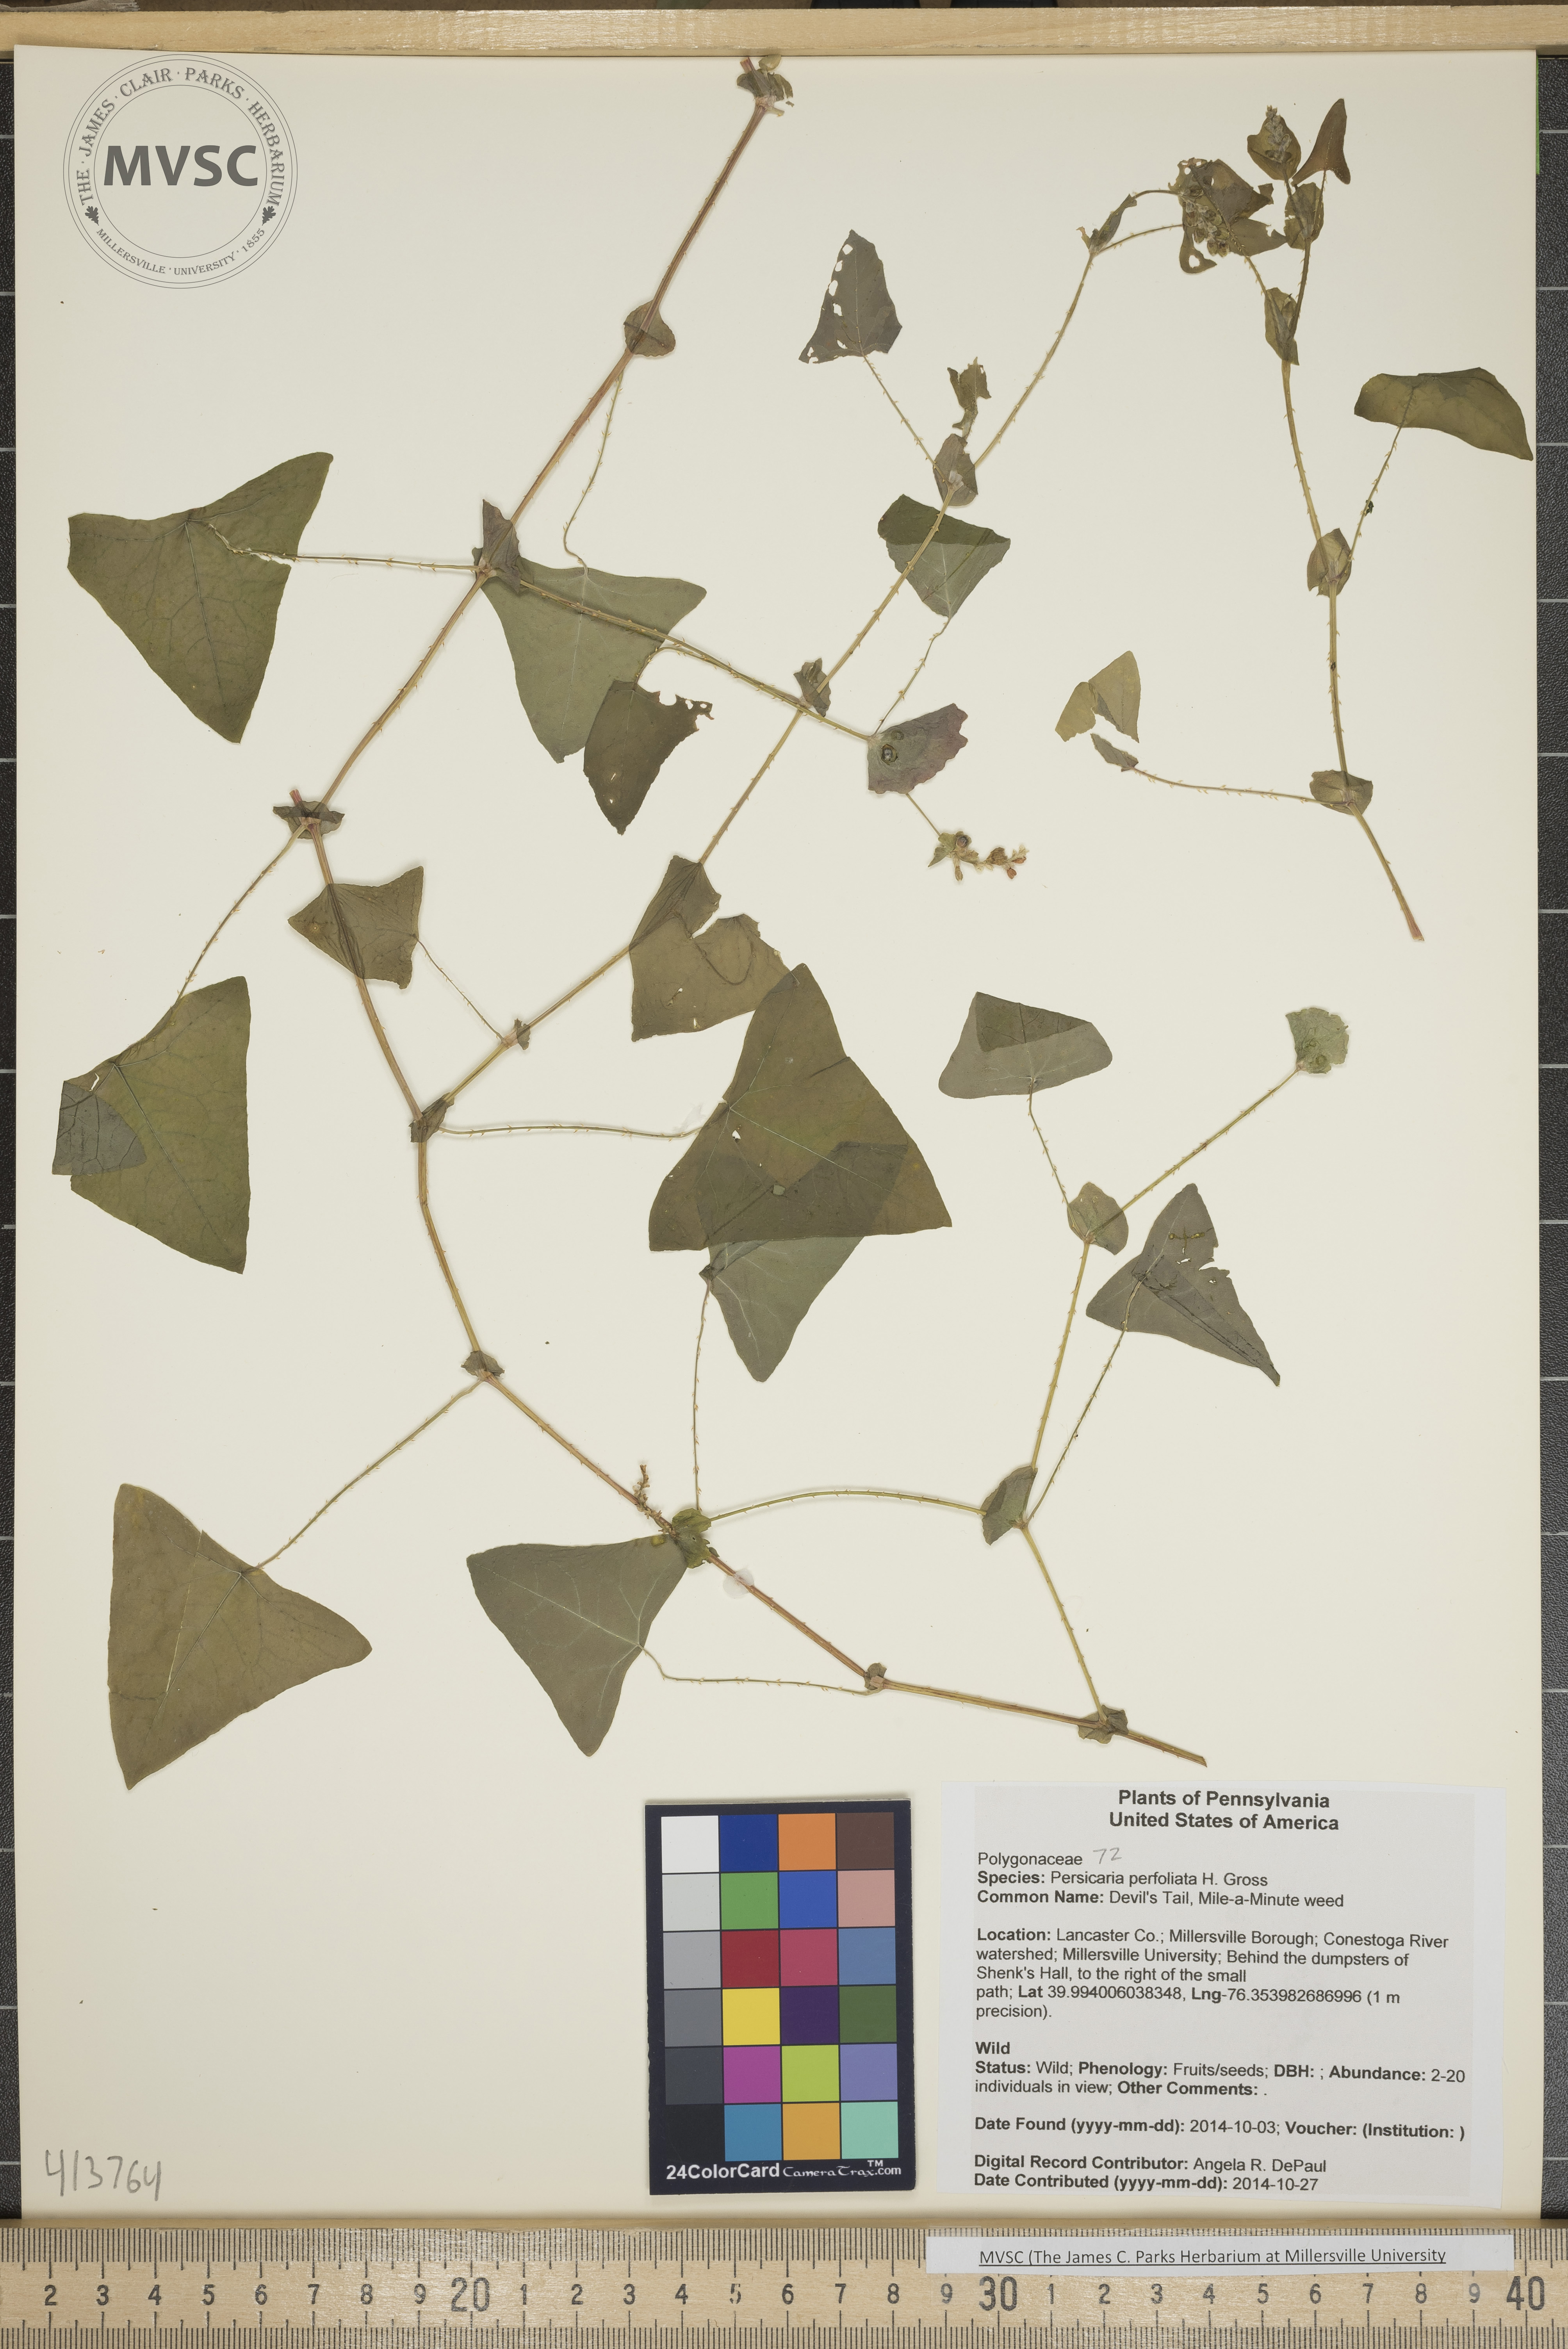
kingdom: Plantae
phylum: Tracheophyta
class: Magnoliopsida
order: Caryophyllales
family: Polygonaceae
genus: Persicaria
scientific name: Persicaria perfoliata
